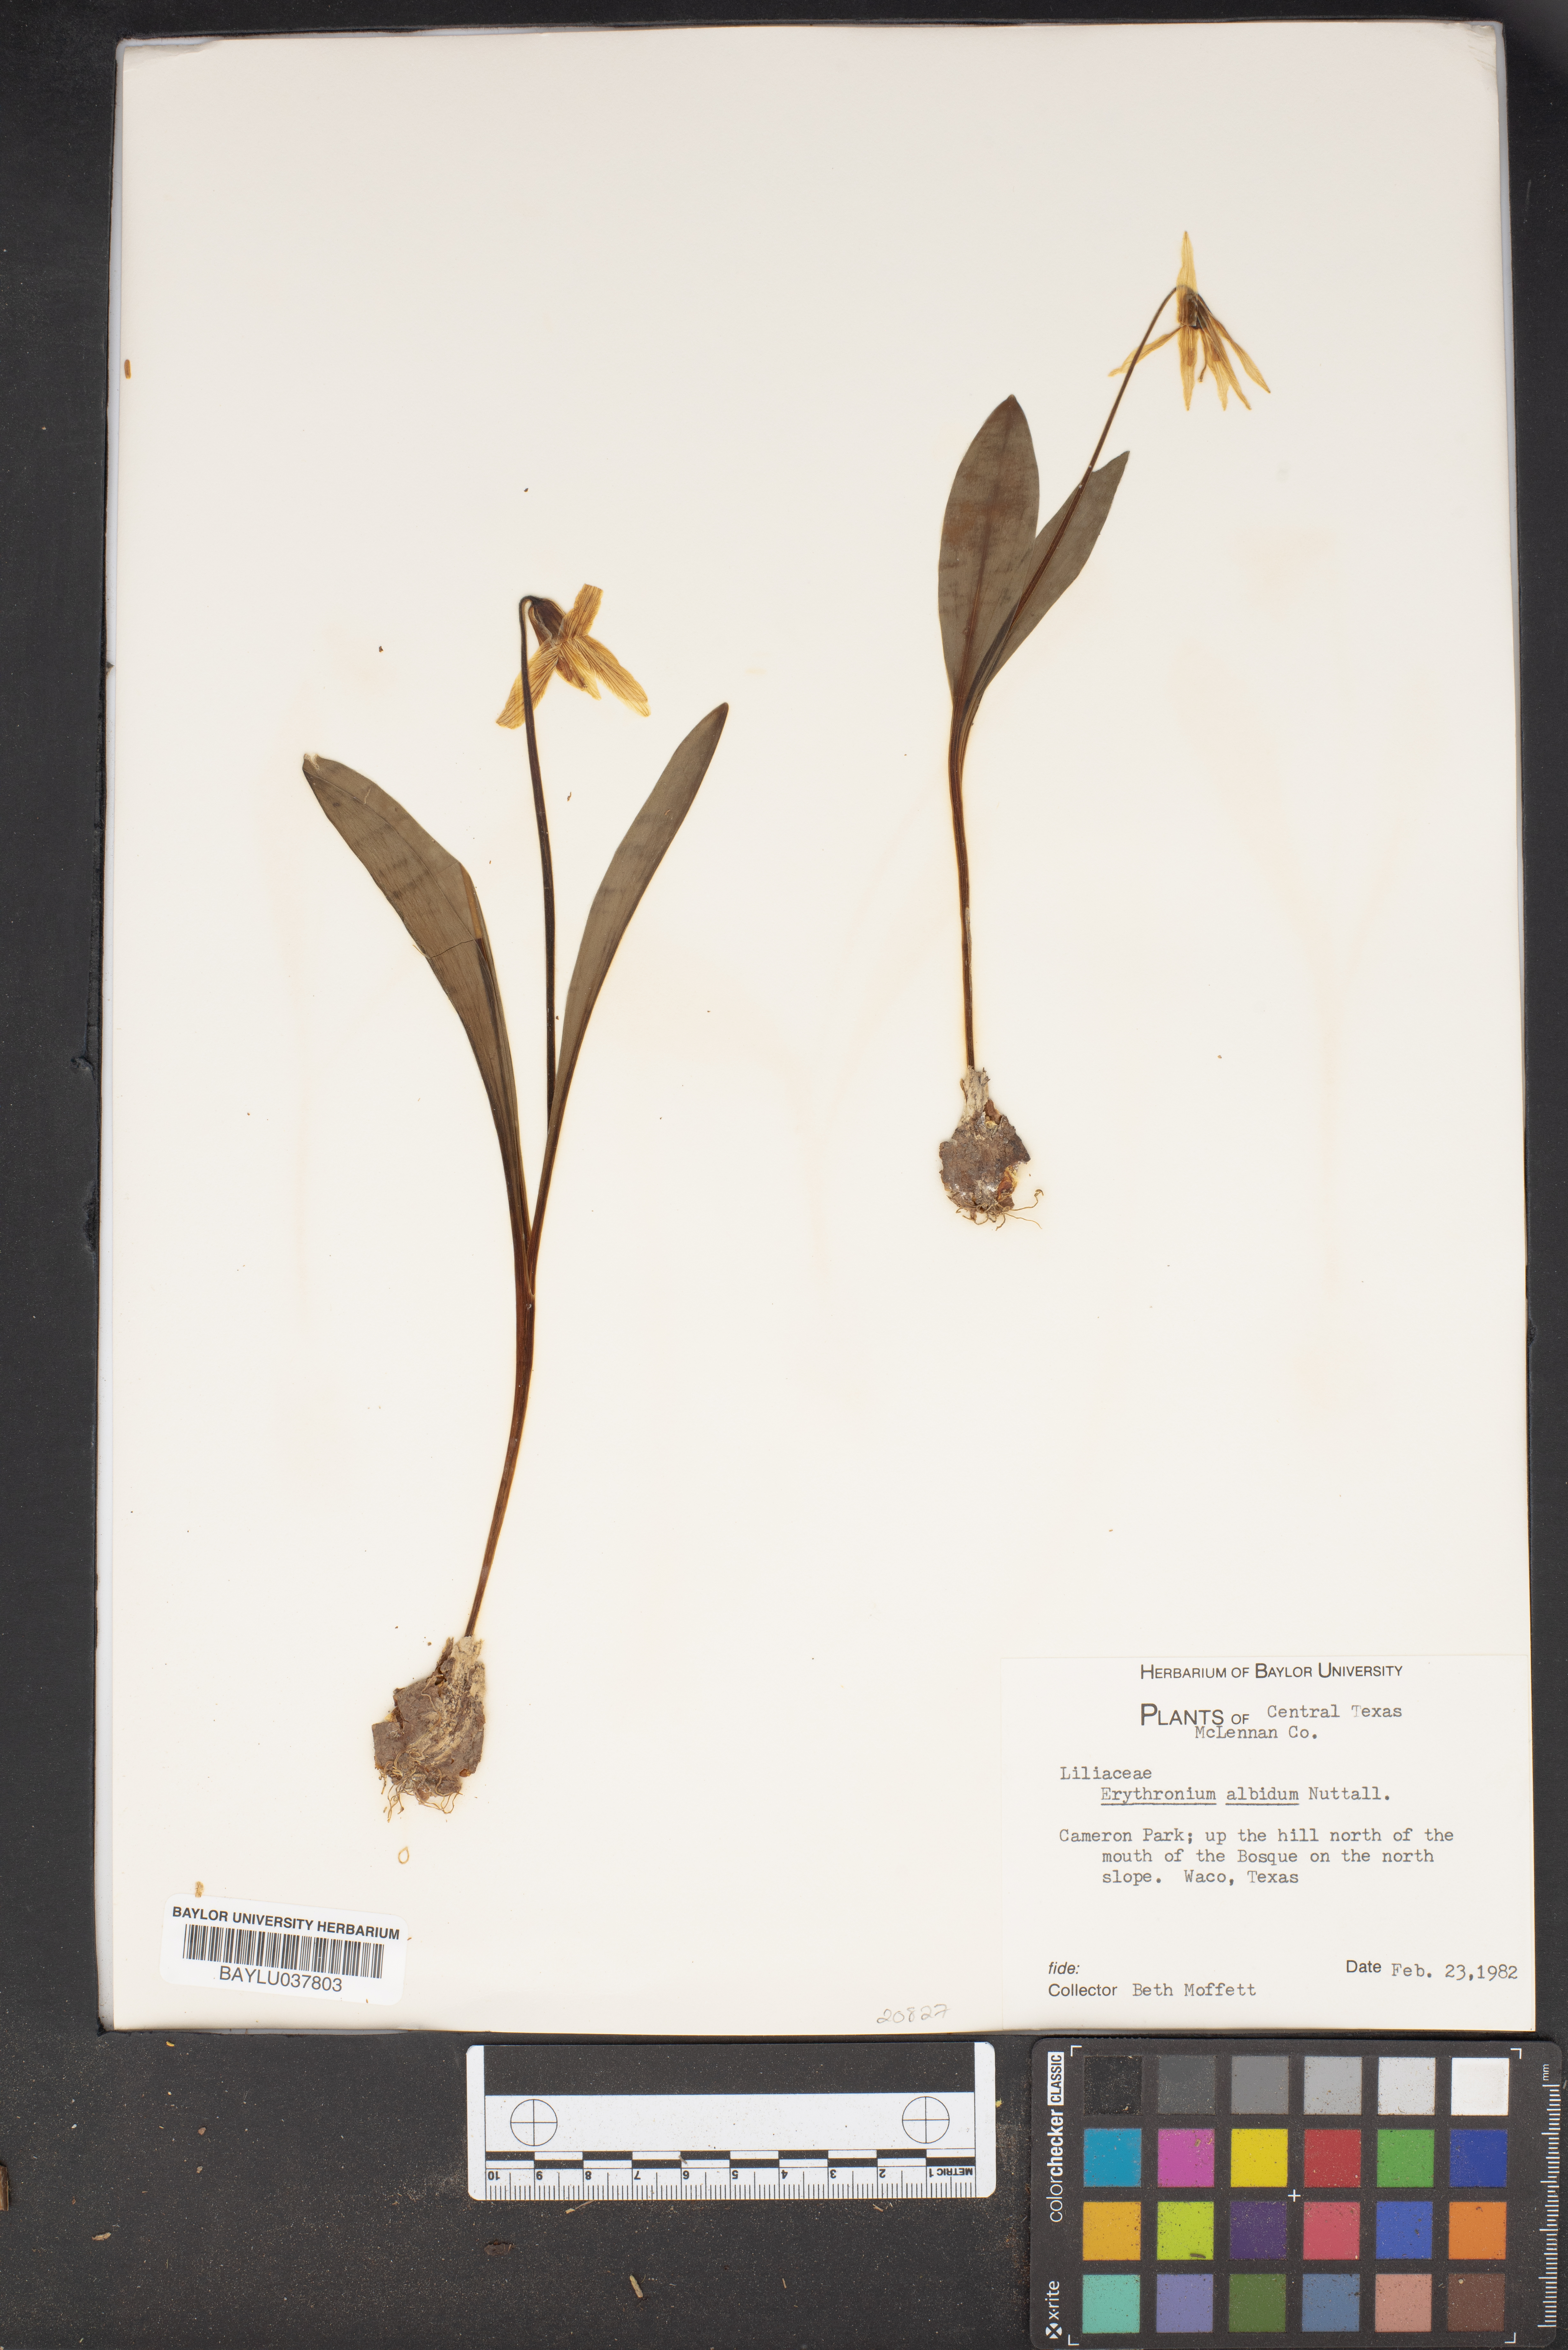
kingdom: Plantae
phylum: Tracheophyta
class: Liliopsida
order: Liliales
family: Liliaceae
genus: Erythronium
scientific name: Erythronium albidum
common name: White trout-lily
